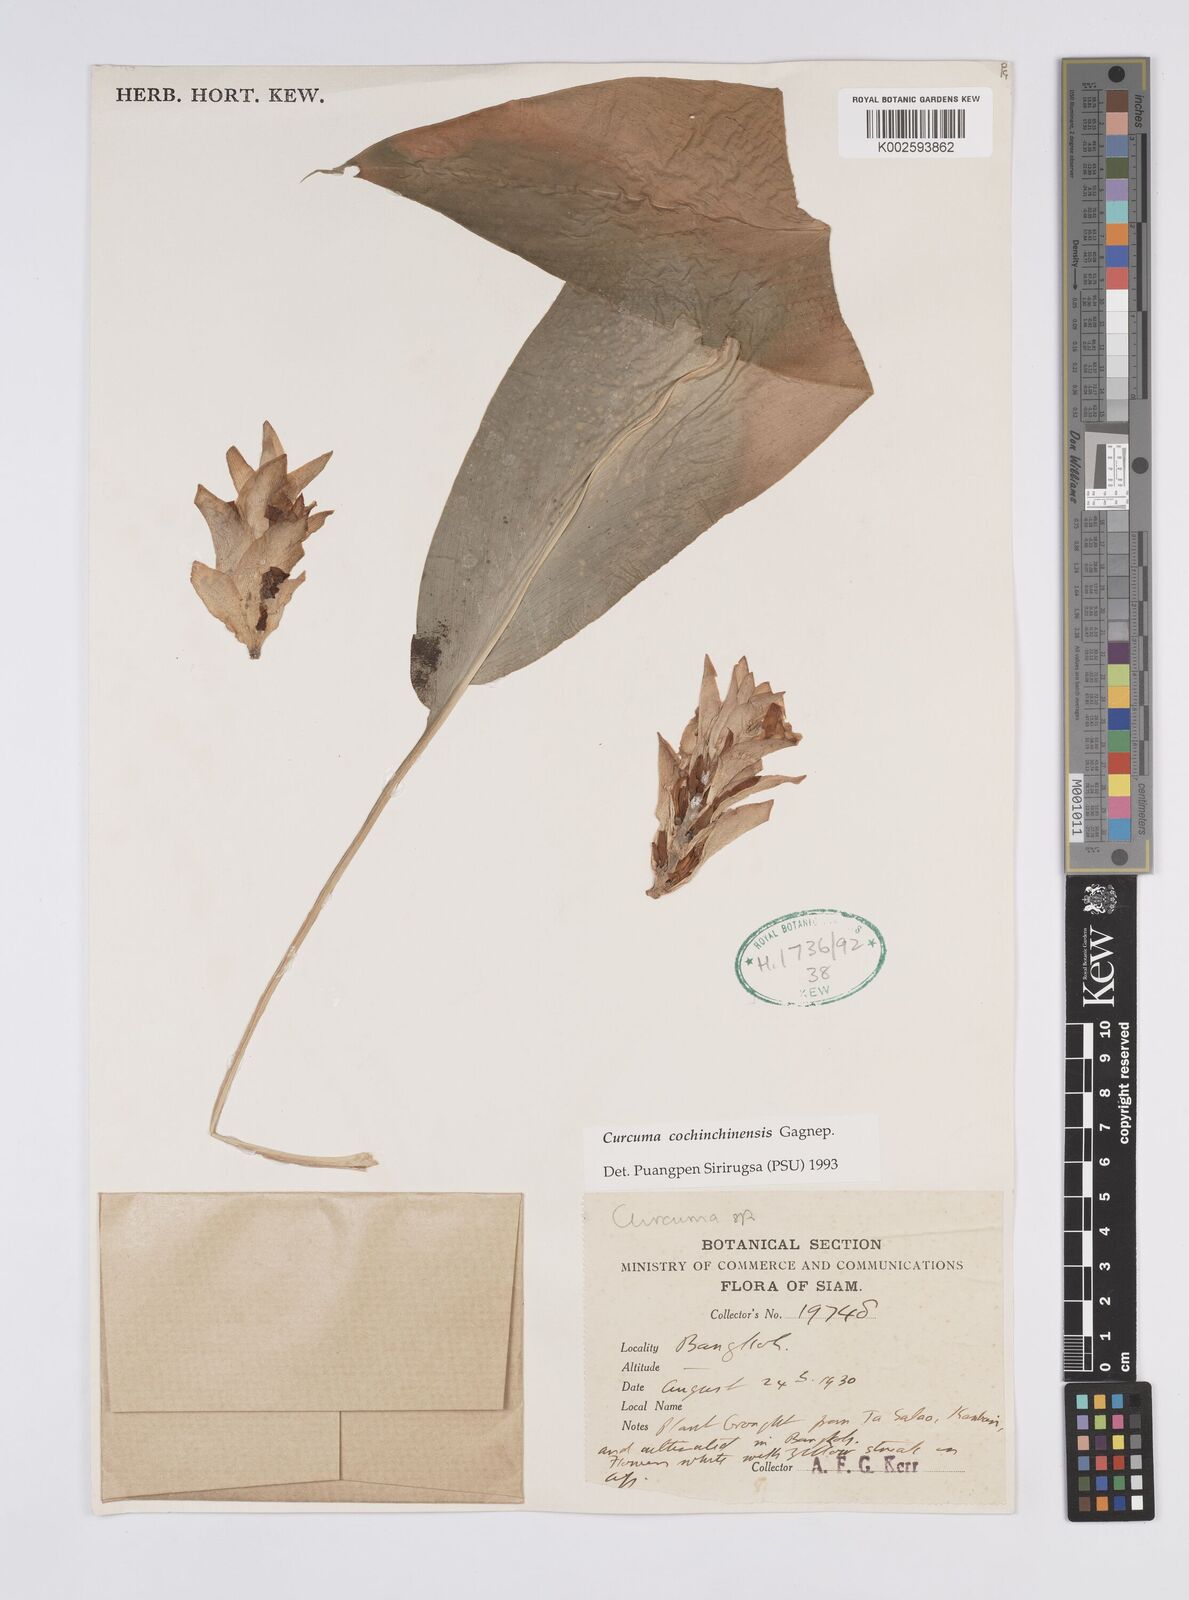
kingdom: Plantae
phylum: Tracheophyta
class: Liliopsida
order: Zingiberales
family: Zingiberaceae
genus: Curcuma
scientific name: Curcuma cochinchinensis
